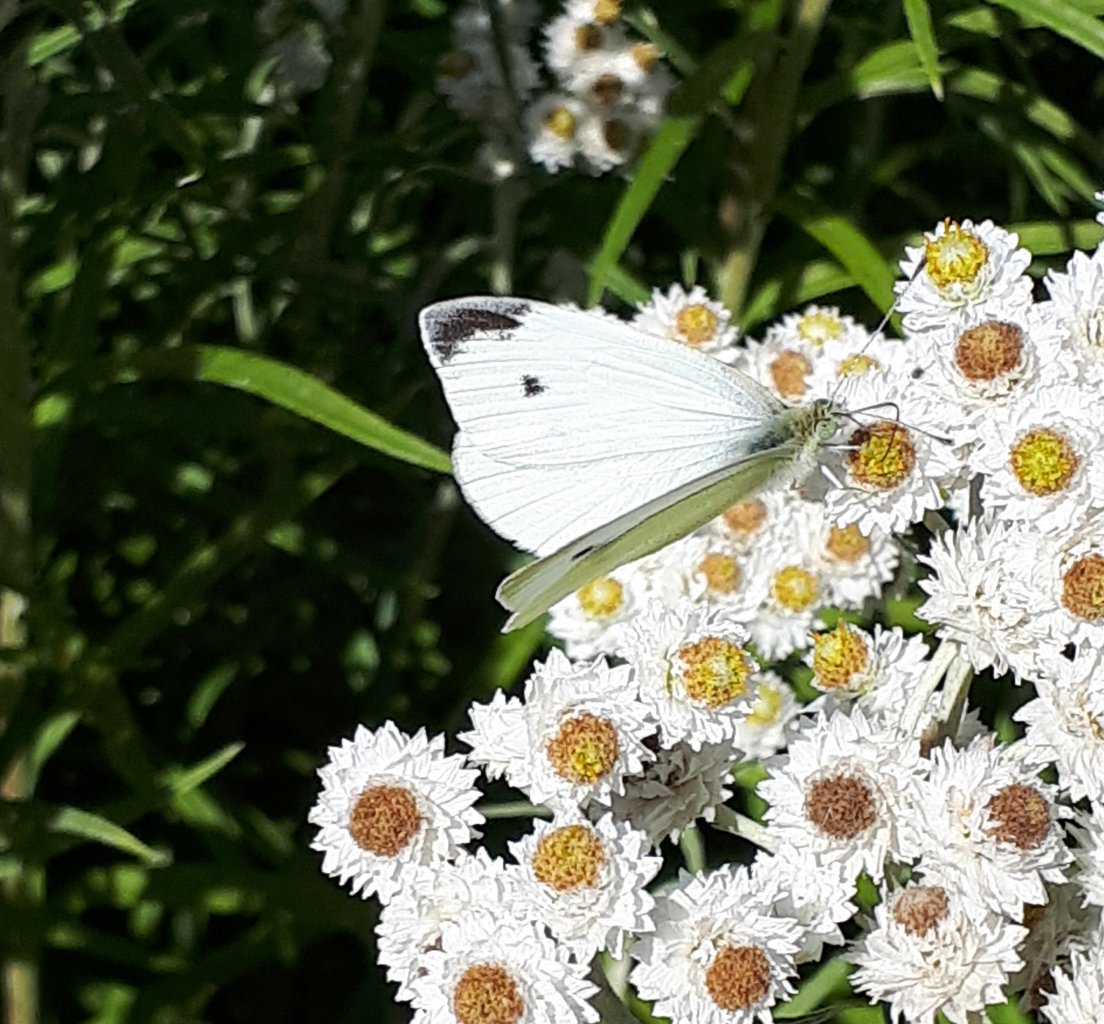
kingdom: Animalia
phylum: Arthropoda
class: Insecta
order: Lepidoptera
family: Pieridae
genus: Pieris
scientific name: Pieris rapae
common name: Cabbage White
